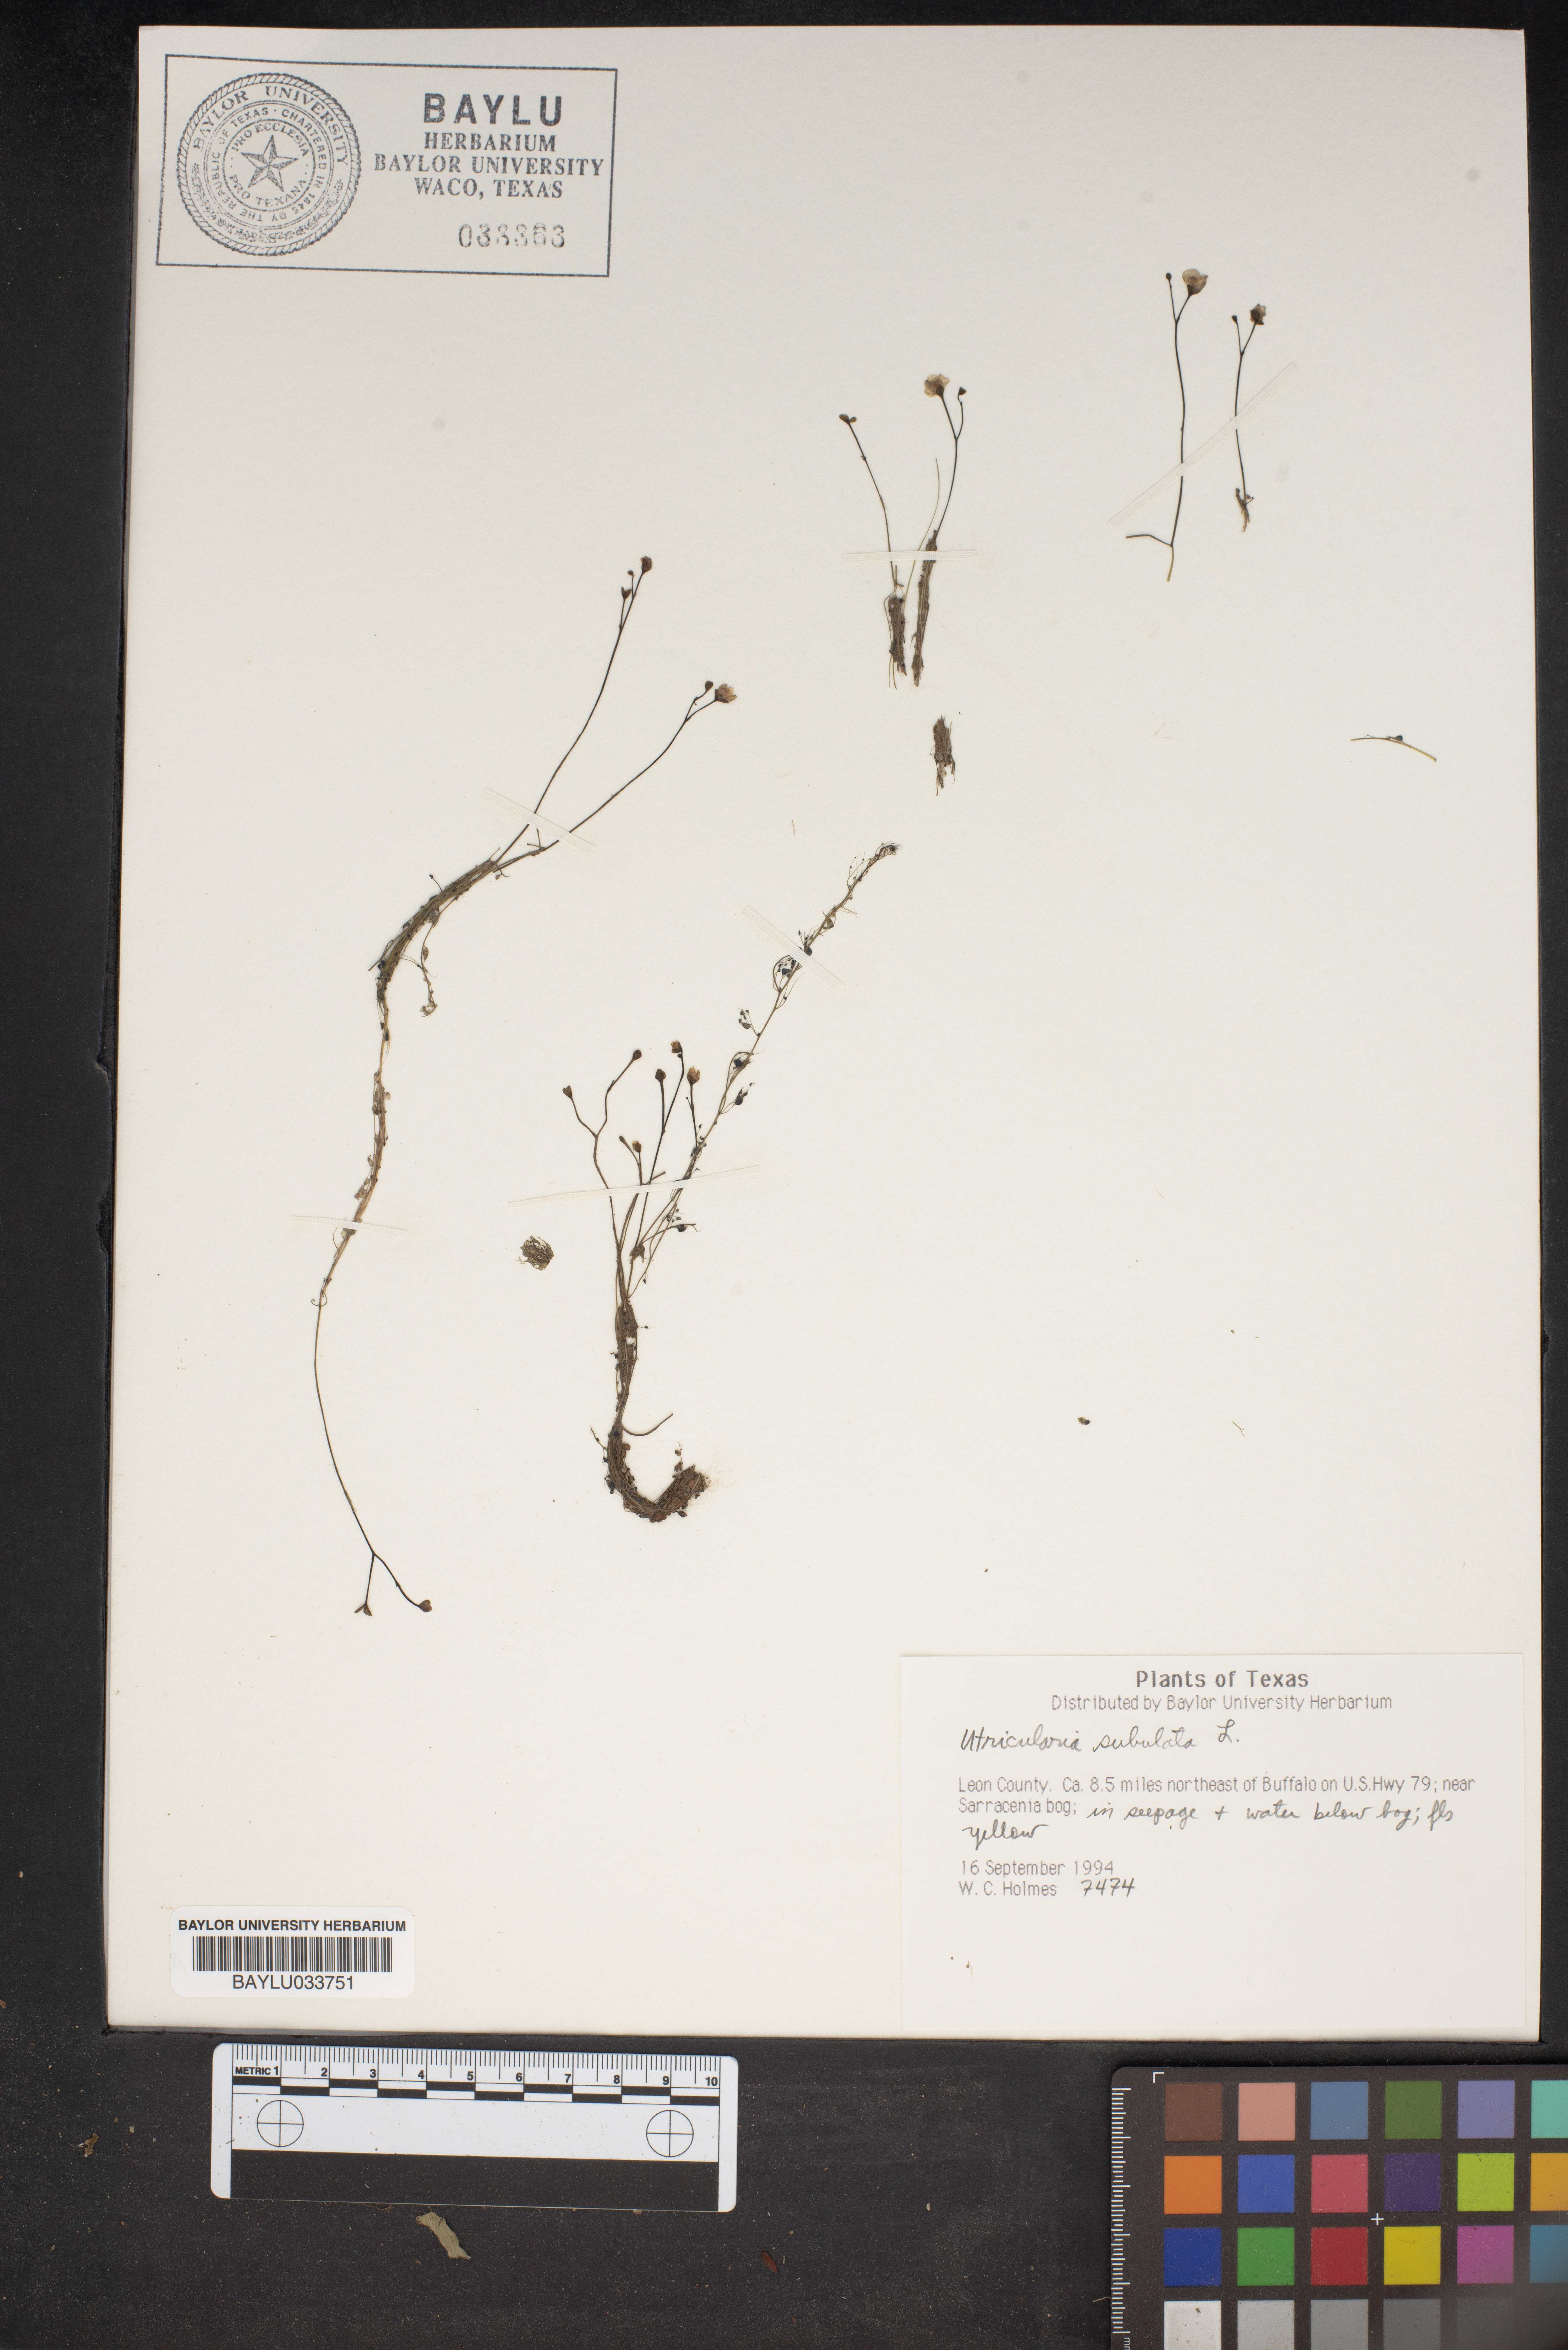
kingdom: Plantae
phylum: Tracheophyta
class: Magnoliopsida
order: Lamiales
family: Lentibulariaceae
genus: Utricularia
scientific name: Utricularia subulata
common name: Tiny bladderwort
